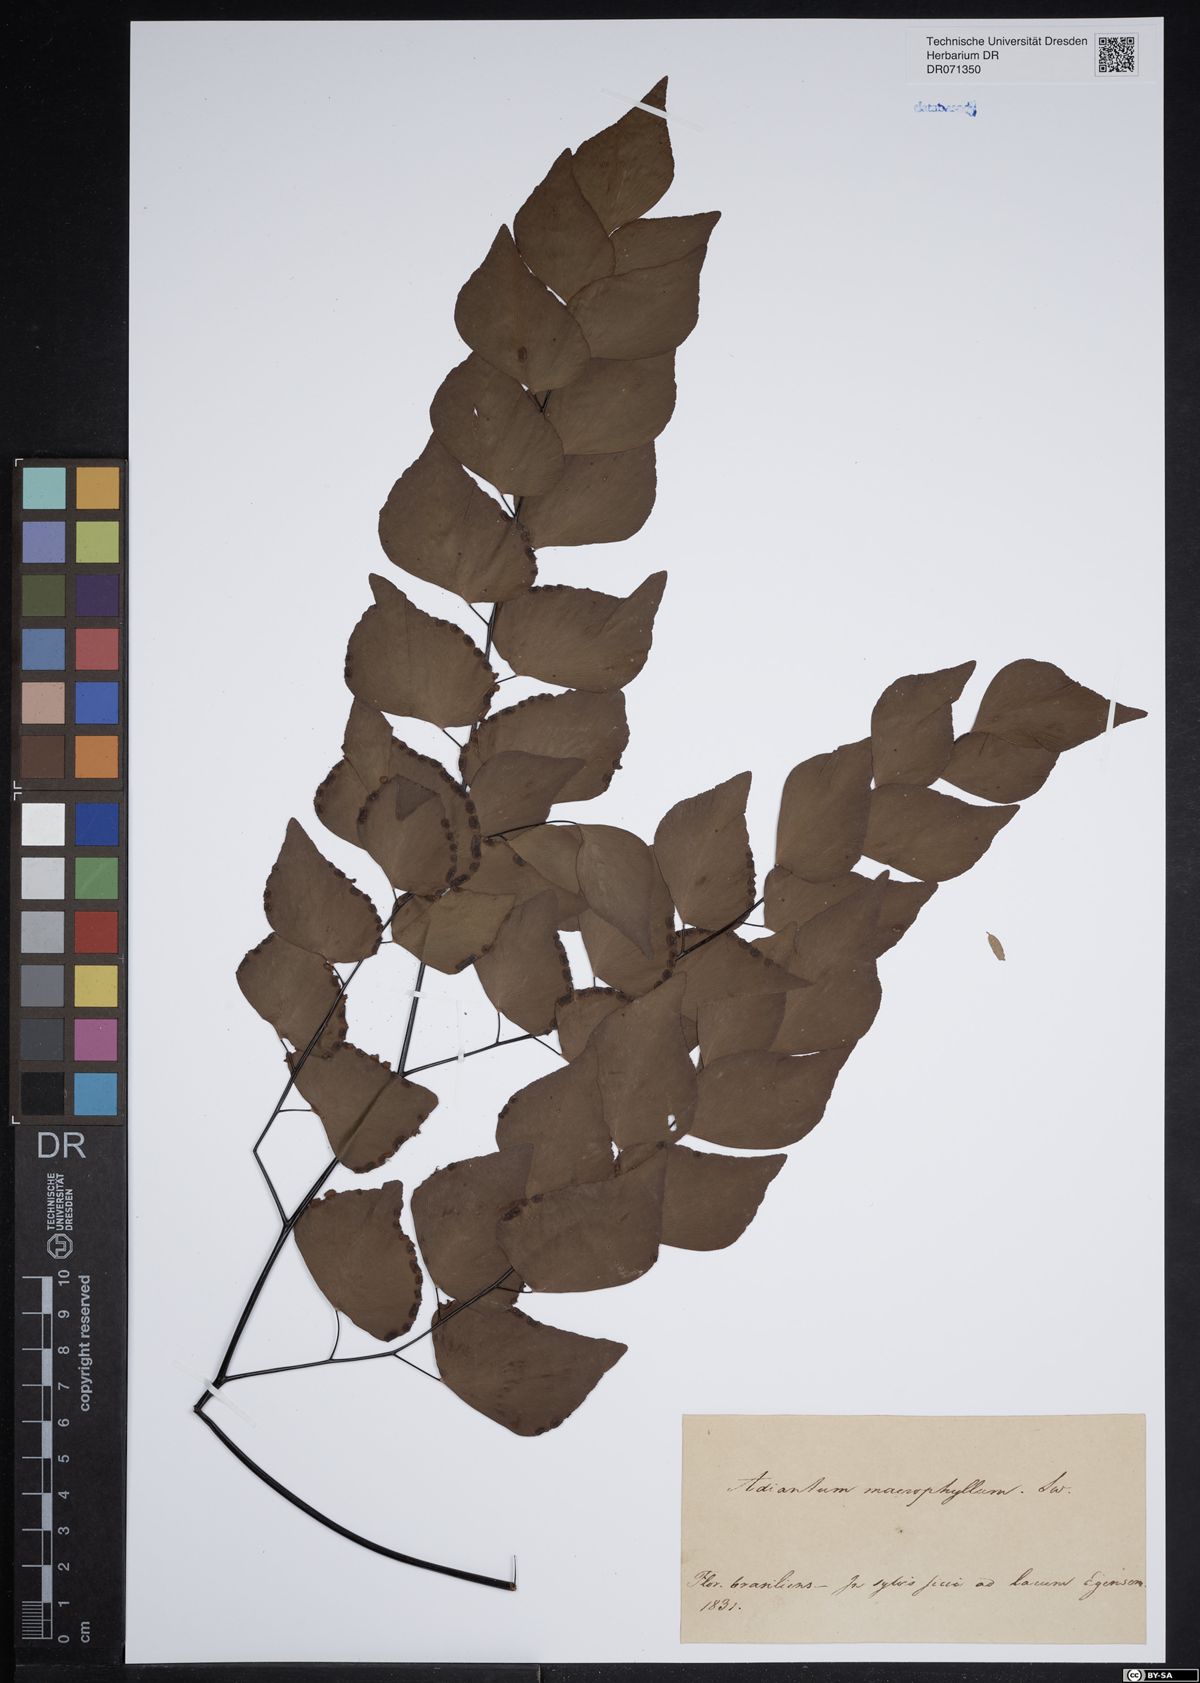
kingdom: Plantae
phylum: Tracheophyta
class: Polypodiopsida
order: Polypodiales
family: Pteridaceae
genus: Adiantum
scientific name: Adiantum macrophyllum
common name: Largeleaf maidenhair
